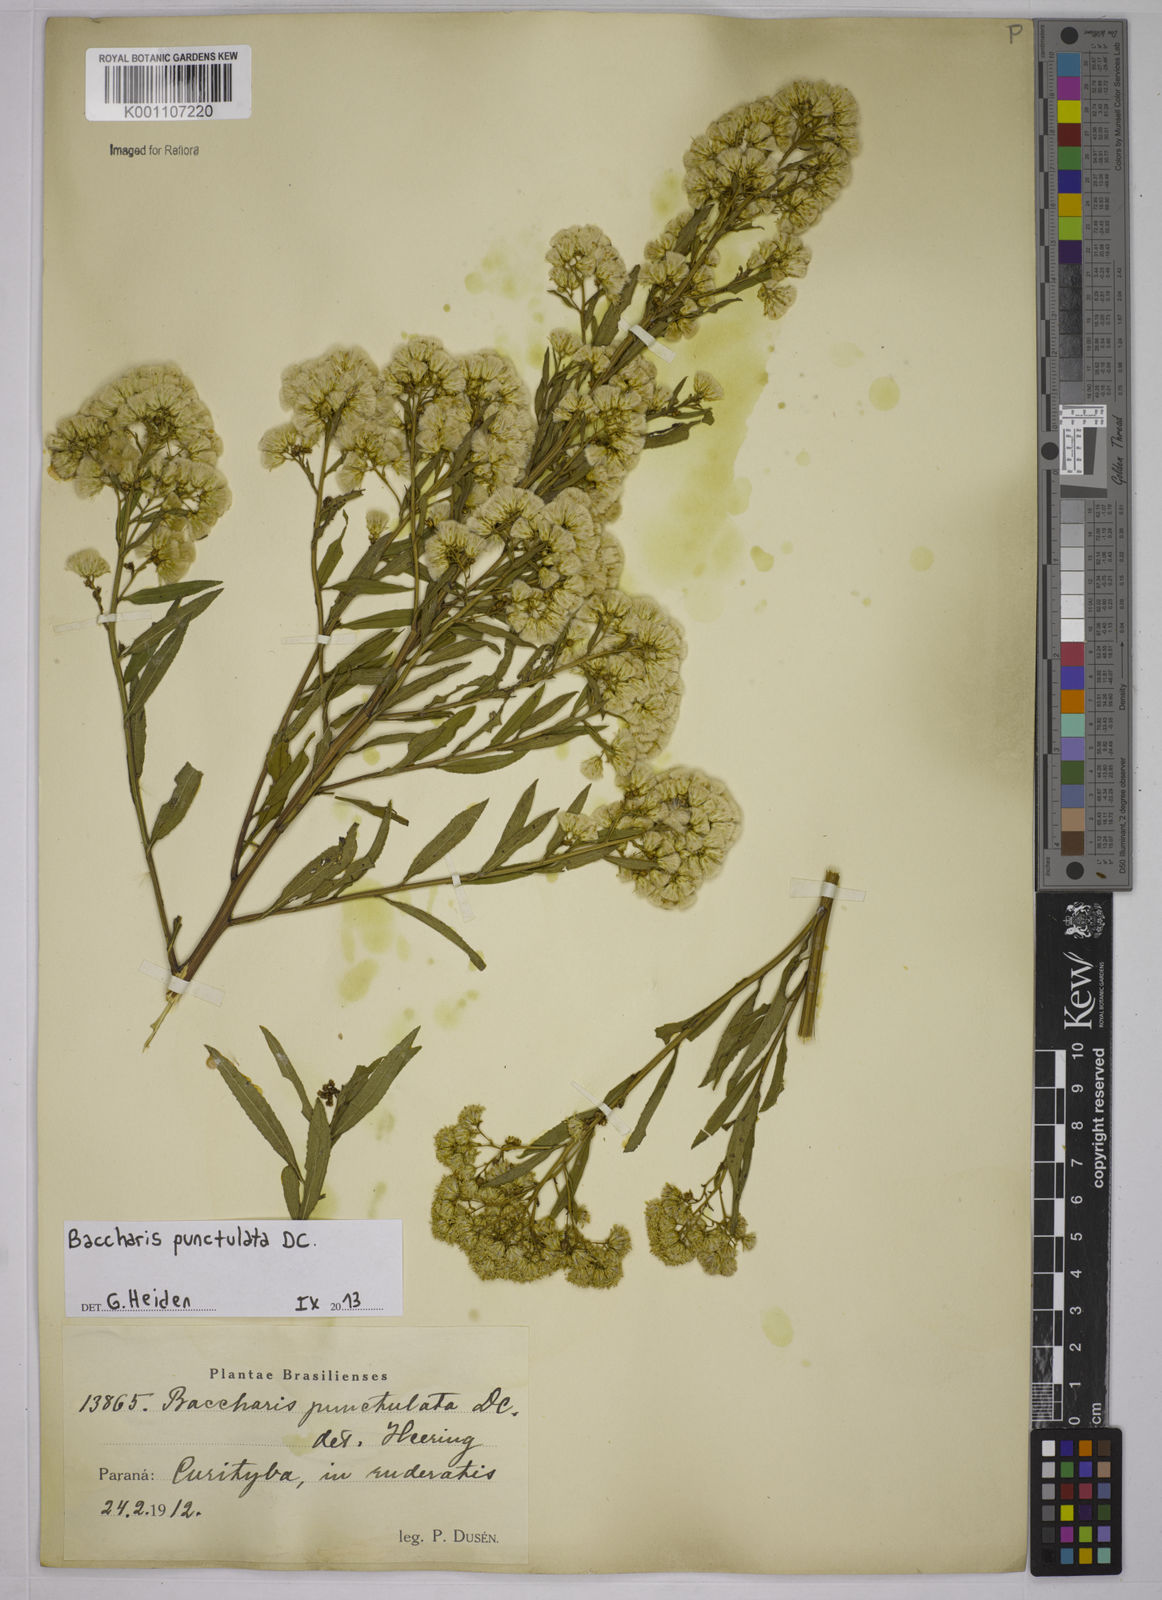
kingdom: Plantae
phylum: Tracheophyta
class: Magnoliopsida
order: Asterales
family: Asteraceae
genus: Baccharis
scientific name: Baccharis punctulata
